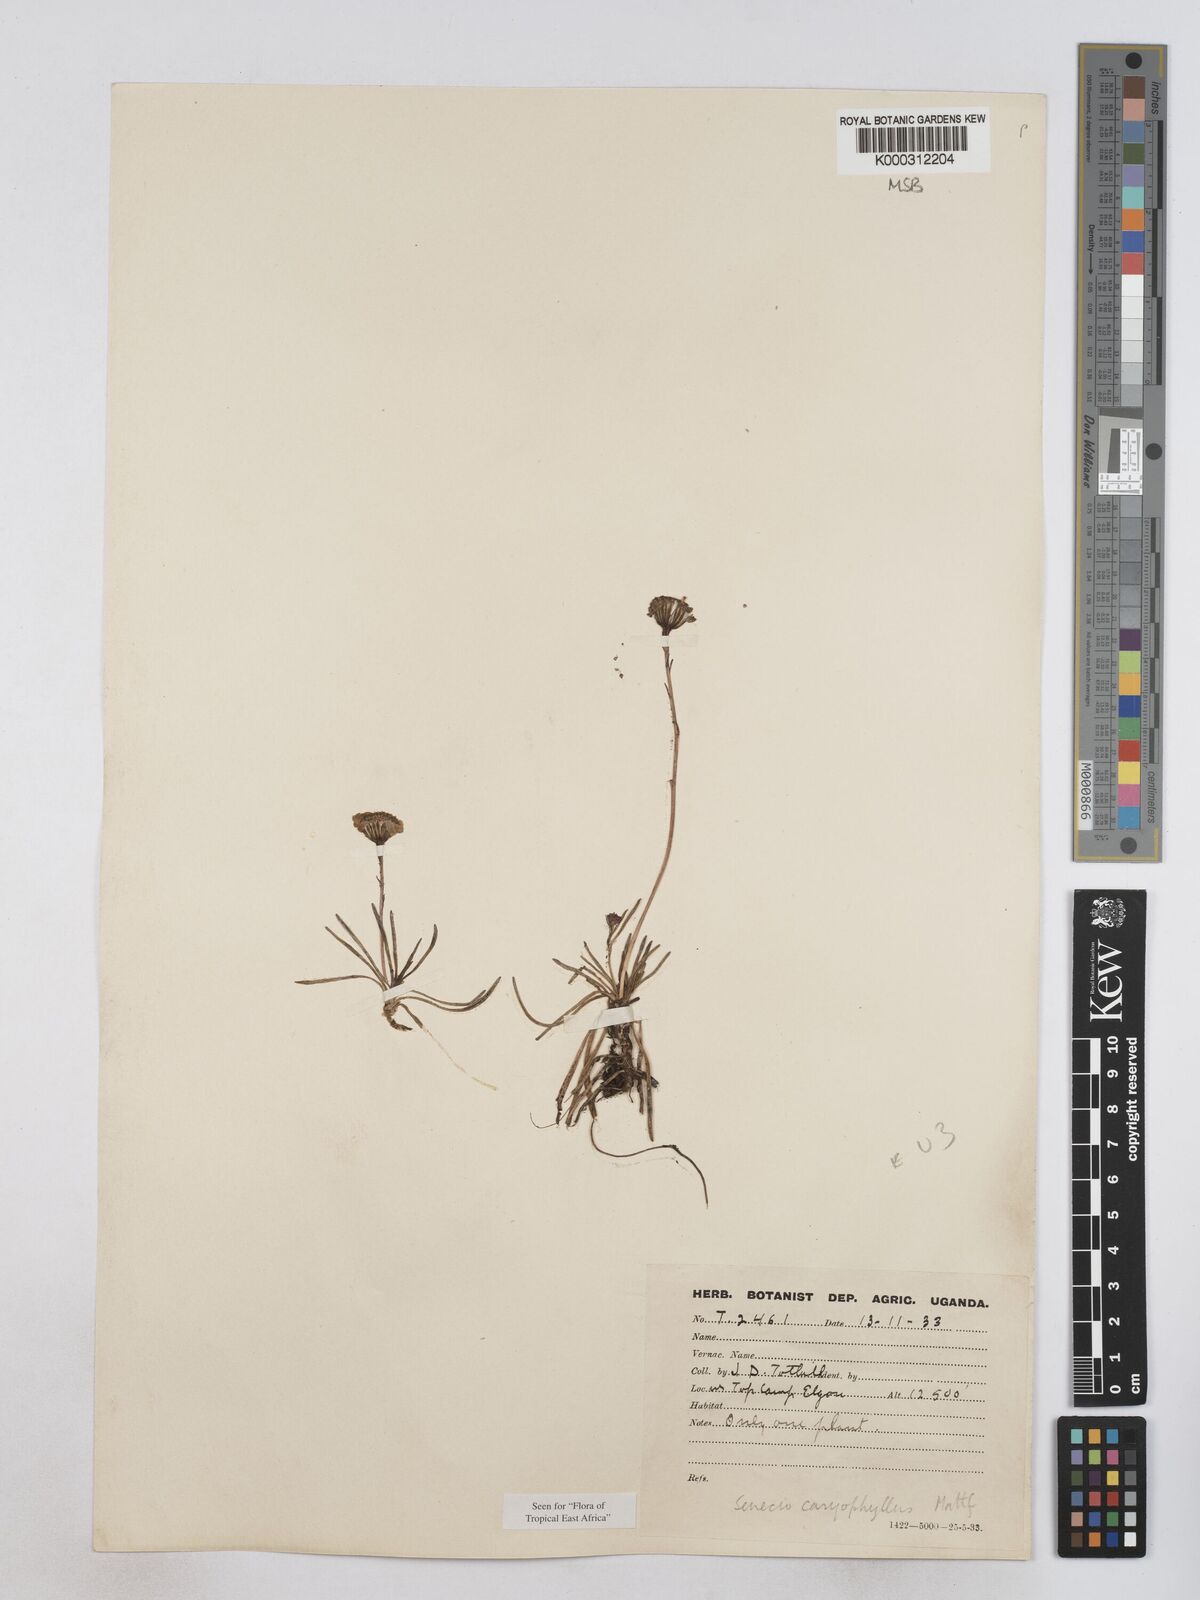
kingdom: Plantae
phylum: Tracheophyta
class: Magnoliopsida
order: Asterales
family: Asteraceae
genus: Senecio
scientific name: Senecio jacksonii
